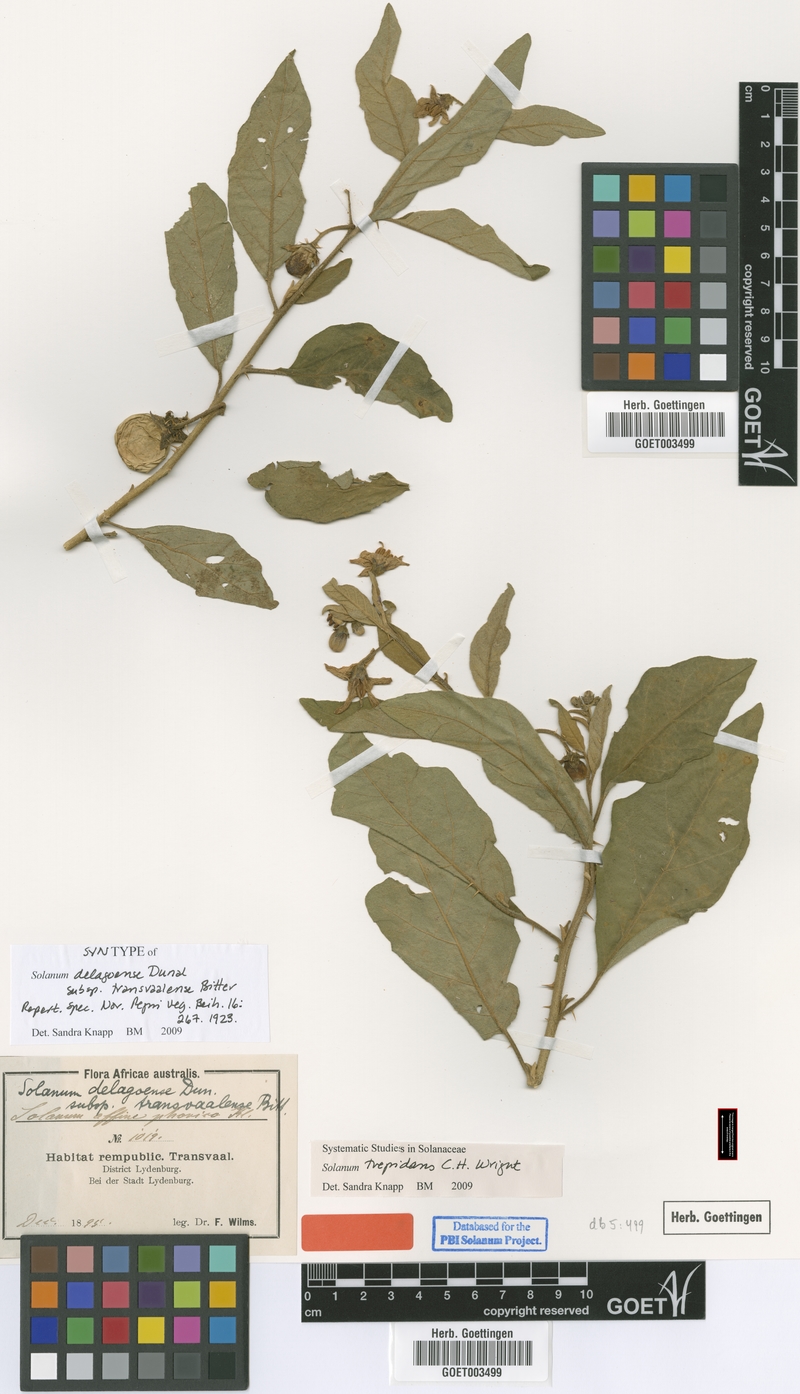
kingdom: Plantae
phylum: Tracheophyta
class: Magnoliopsida
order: Solanales
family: Solanaceae
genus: Solanum
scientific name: Solanum campylacanthum
